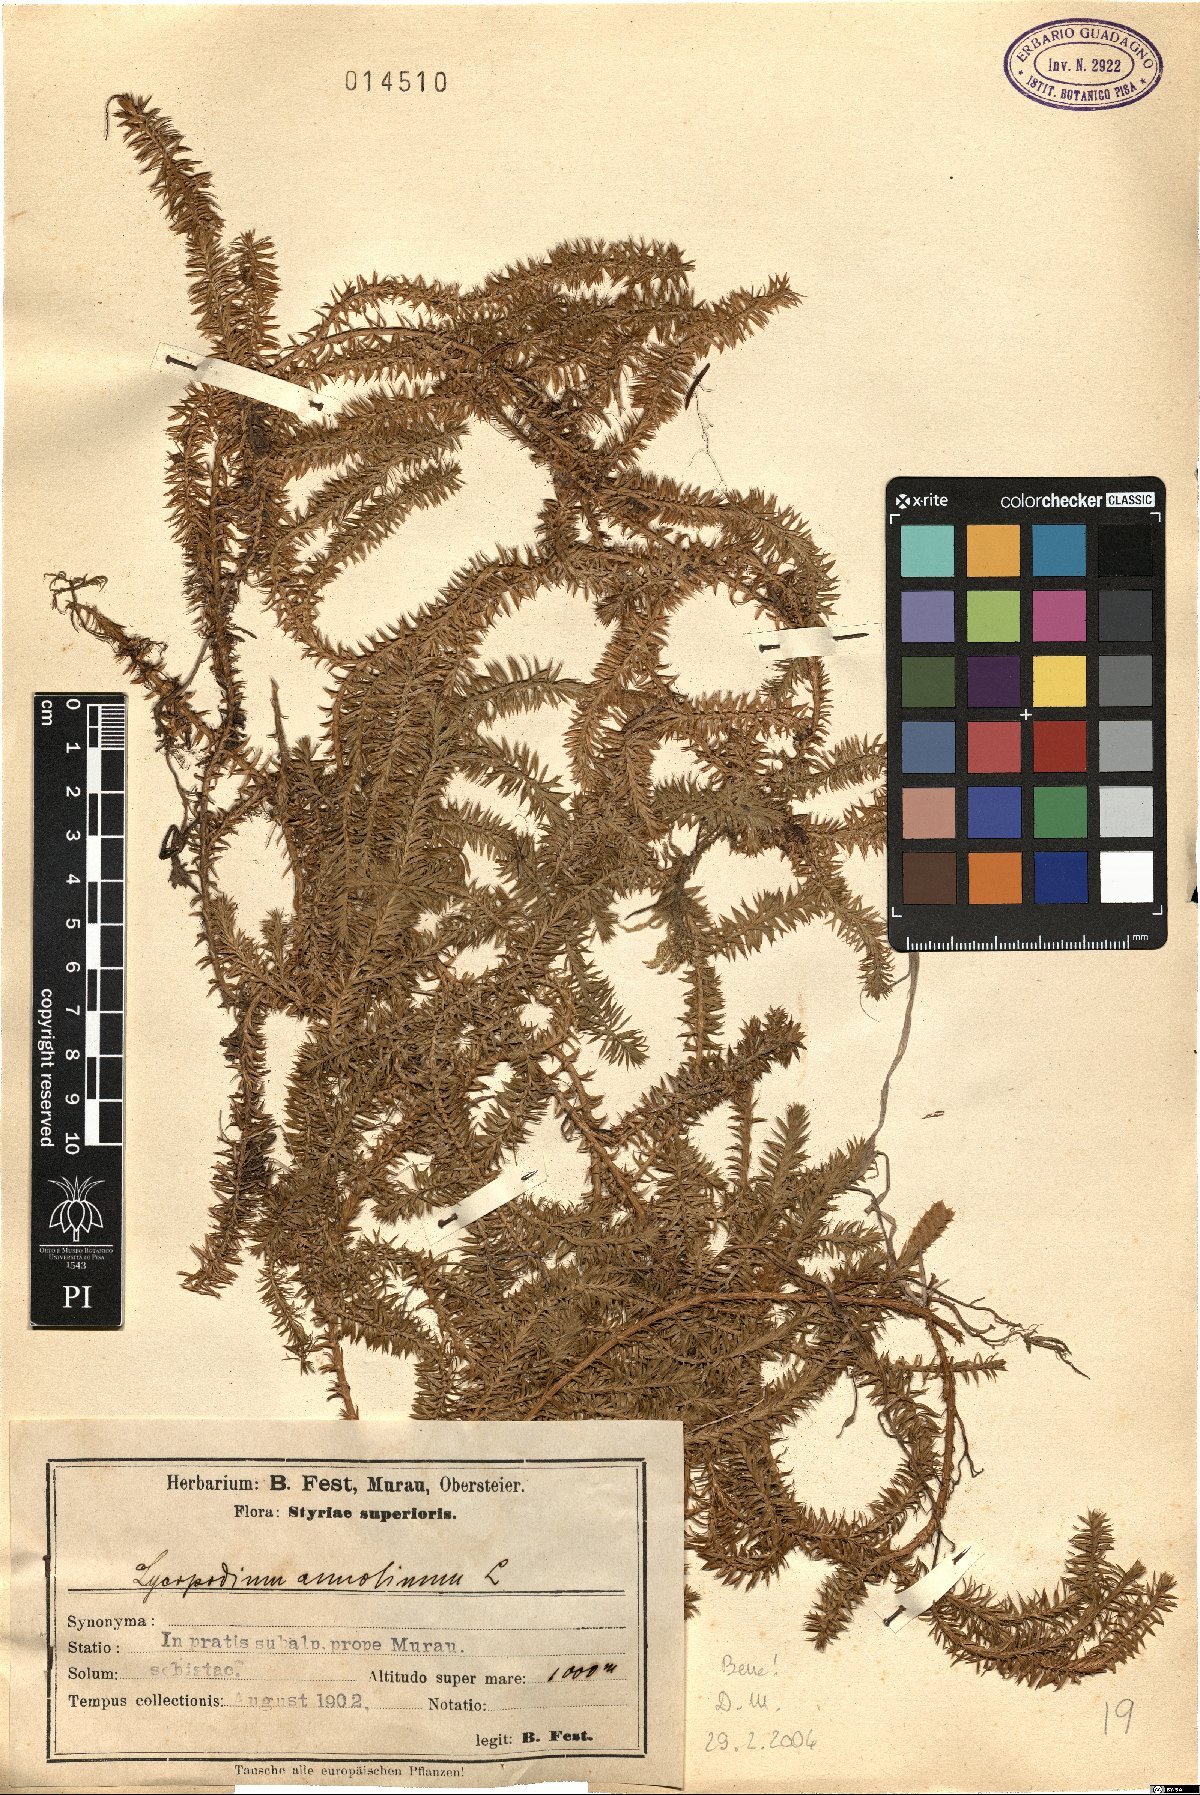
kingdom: Plantae
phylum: Tracheophyta
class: Lycopodiopsida
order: Lycopodiales
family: Lycopodiaceae
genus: Spinulum
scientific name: Spinulum annotinum
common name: Interrupted club-moss
